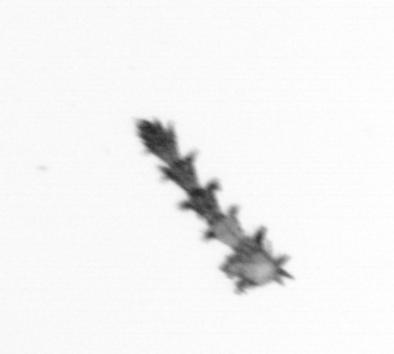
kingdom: Animalia
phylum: Cnidaria
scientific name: Cnidaria
